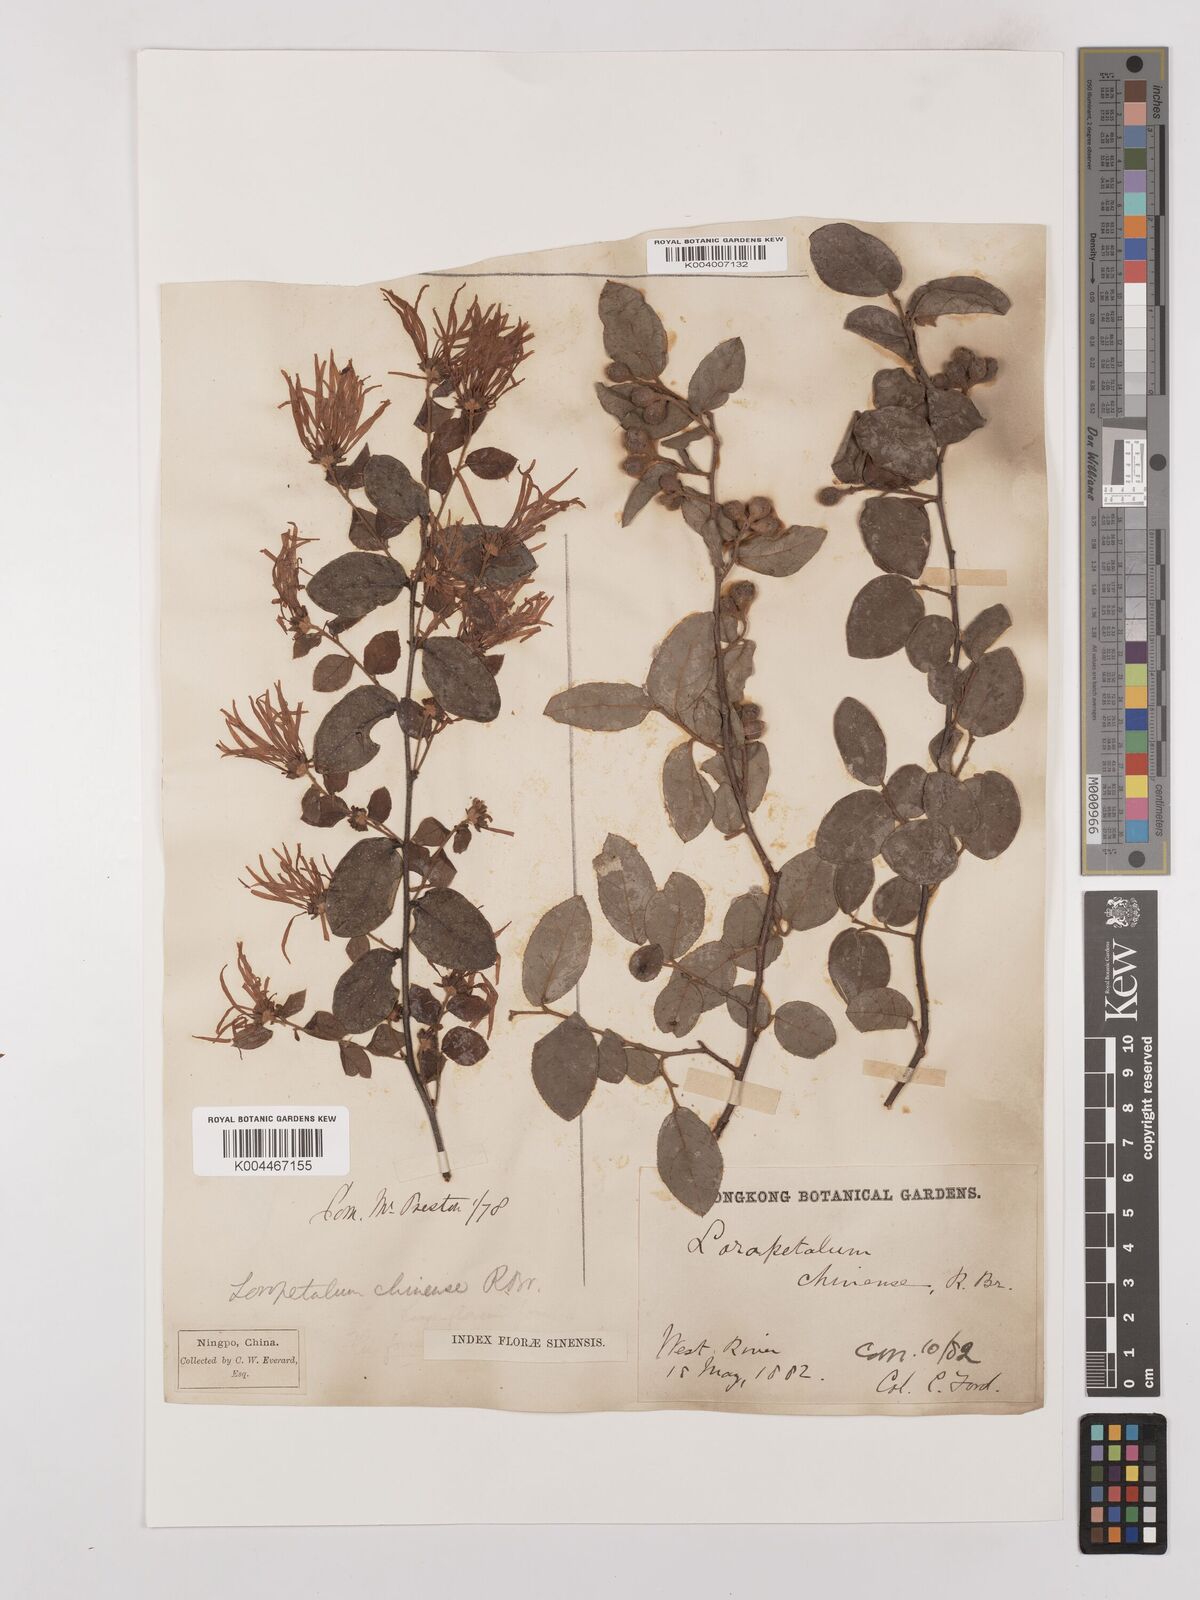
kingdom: Plantae
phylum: Tracheophyta
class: Magnoliopsida
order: Saxifragales
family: Hamamelidaceae
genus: Loropetalum
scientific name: Loropetalum chinense
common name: Chinese fringe flower
